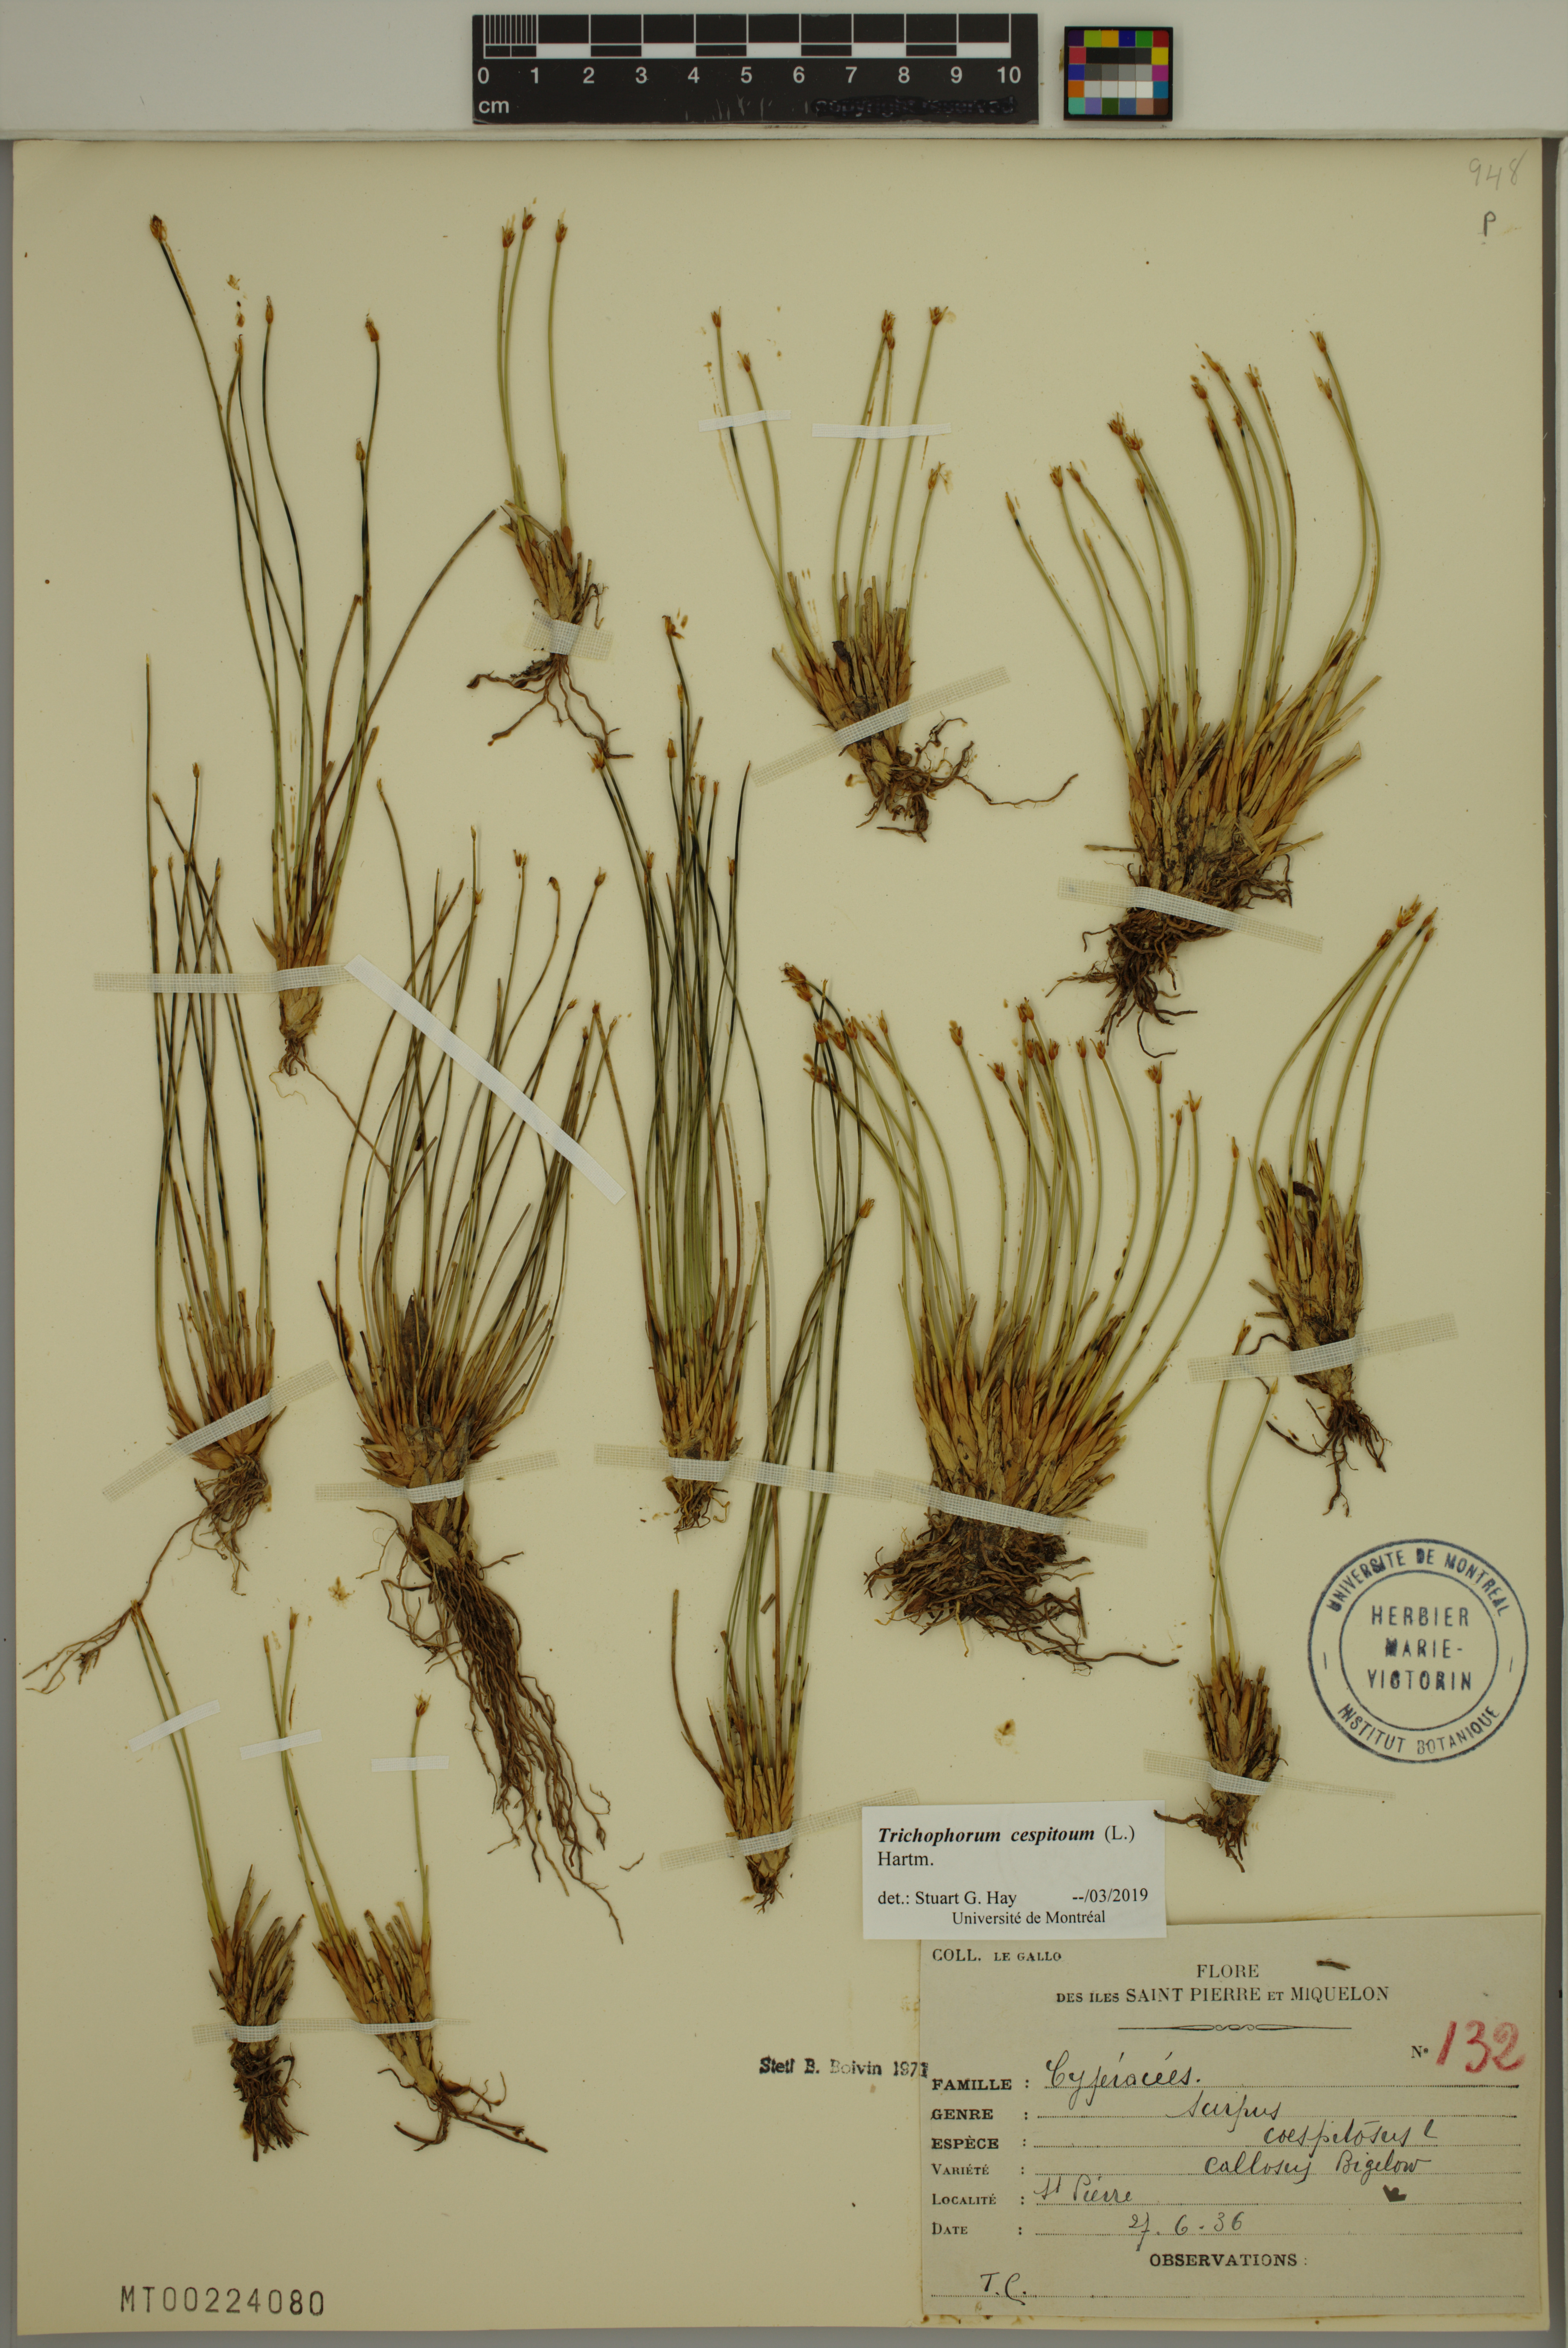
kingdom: Plantae
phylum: Tracheophyta
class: Liliopsida
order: Poales
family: Cyperaceae
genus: Trichophorum
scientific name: Trichophorum cespitosum
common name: Cespitose bulrush
